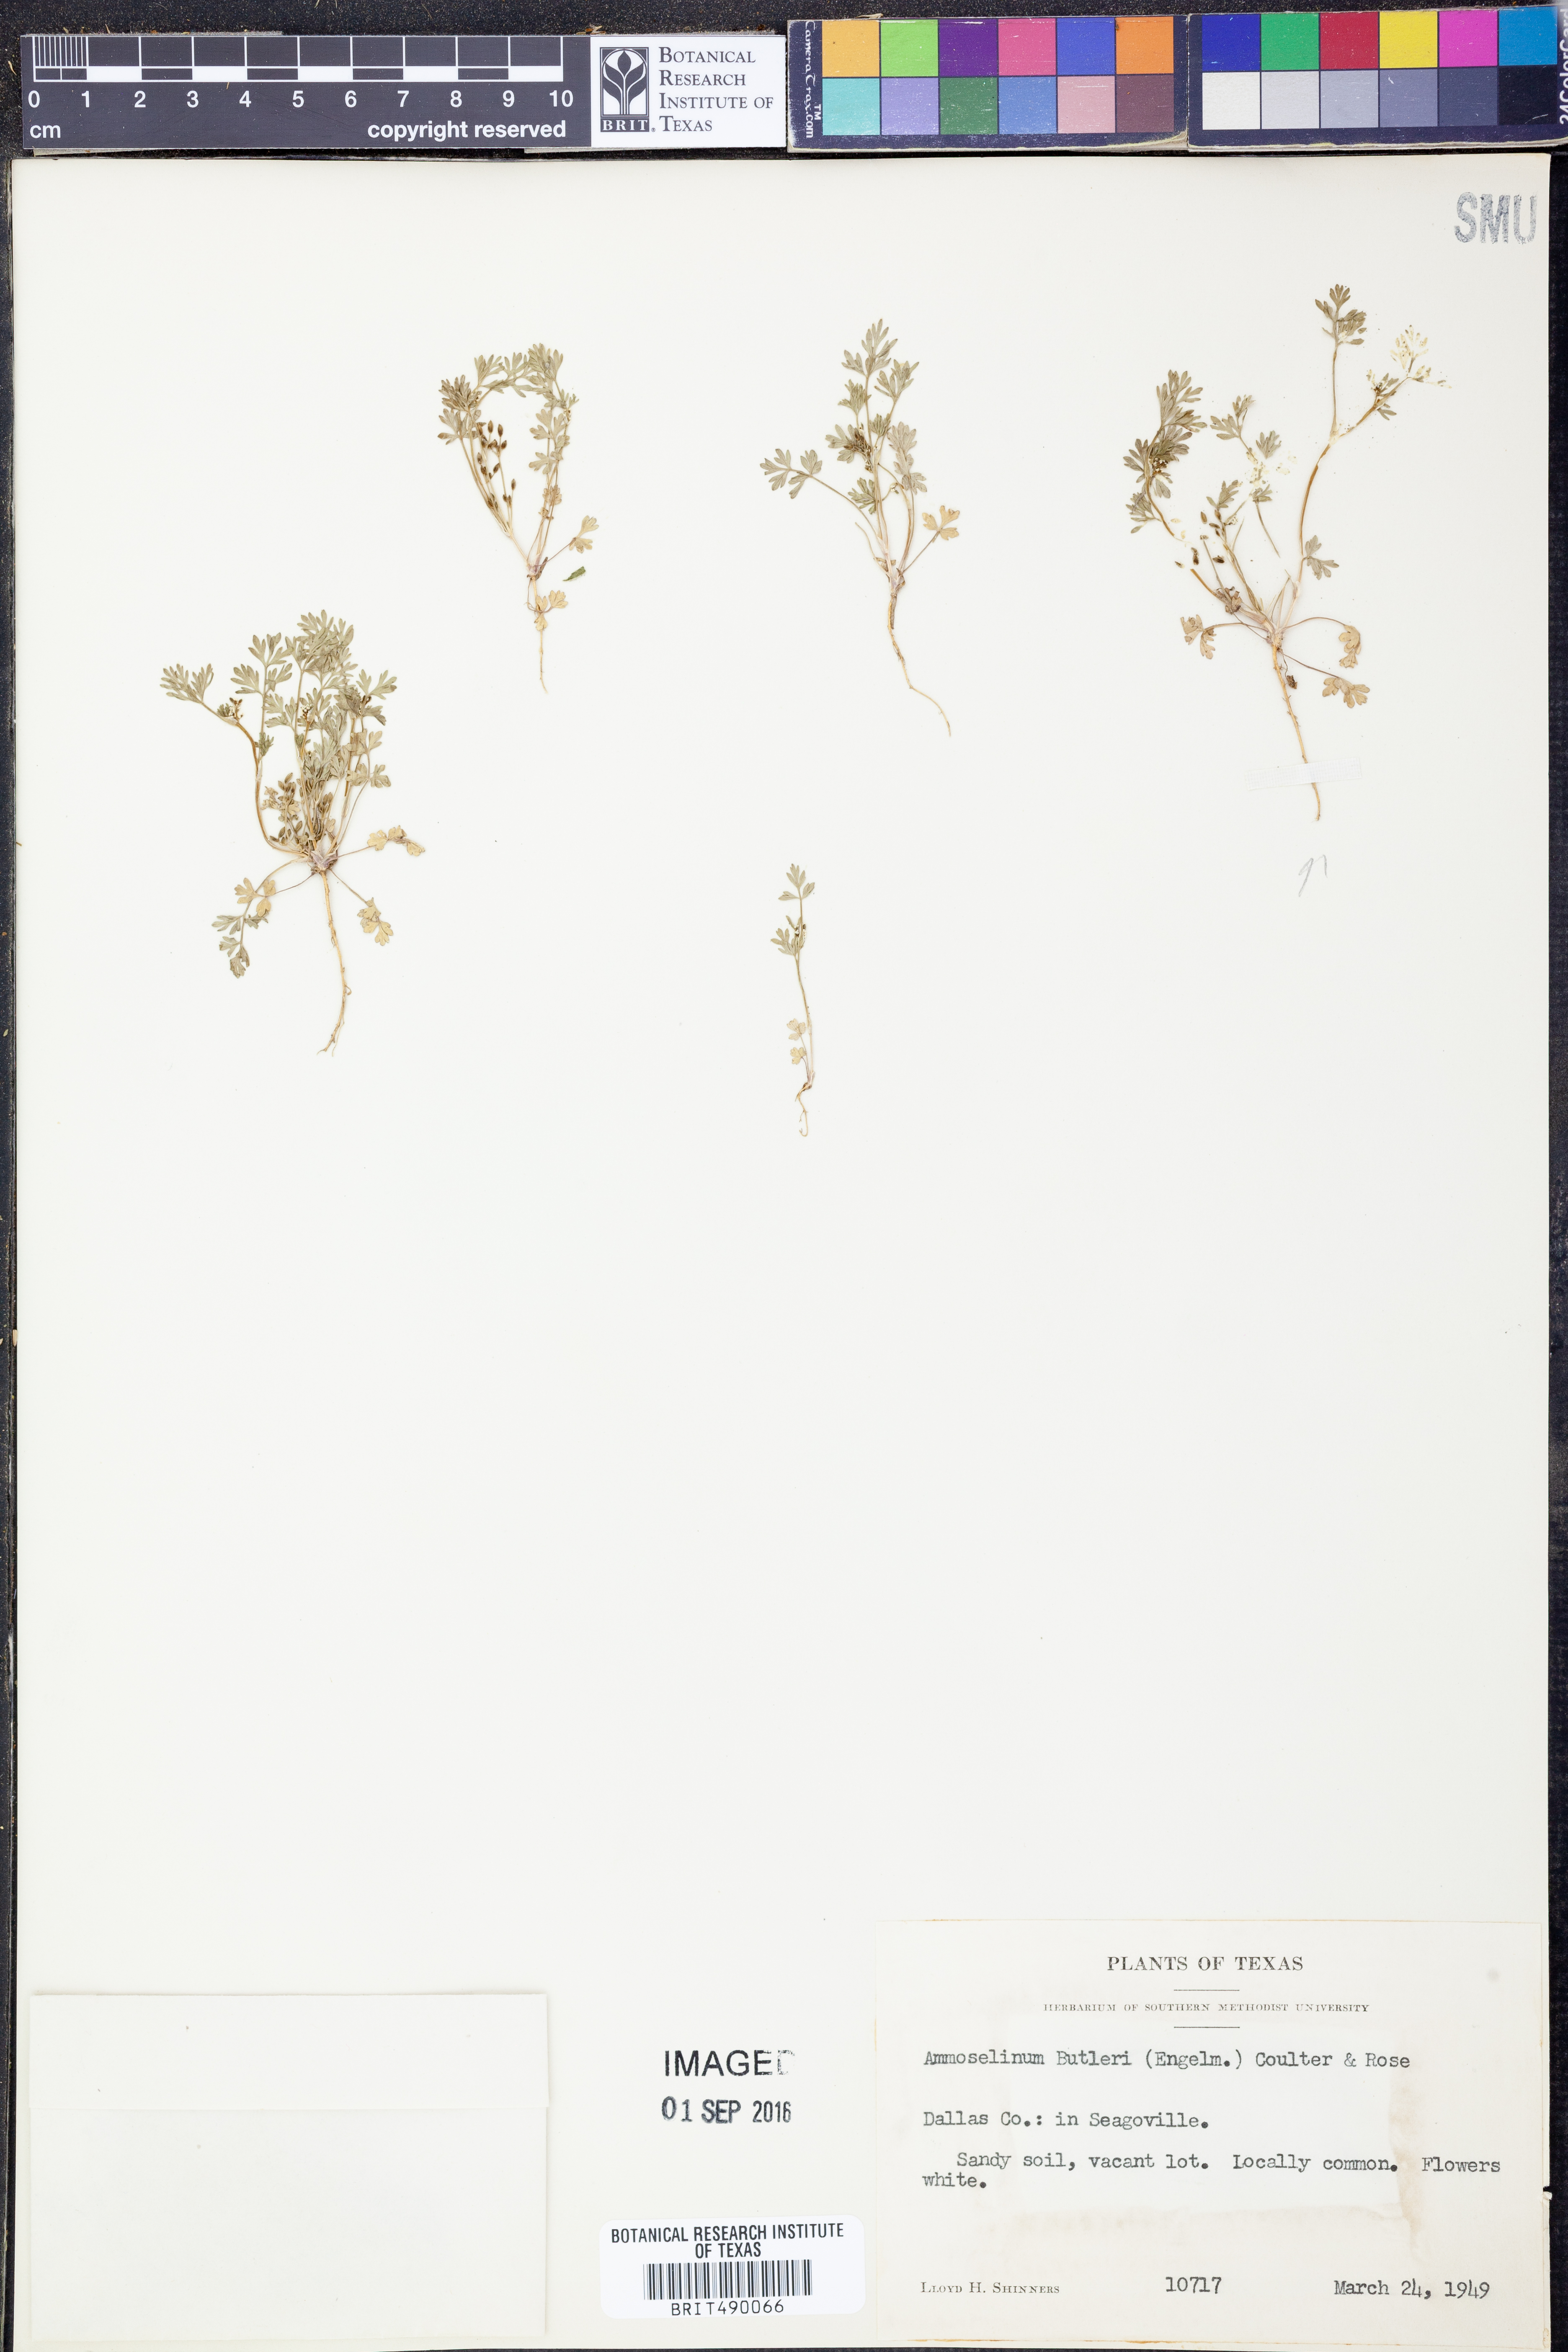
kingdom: Plantae
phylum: Tracheophyta
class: Magnoliopsida
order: Apiales
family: Apiaceae
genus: Ammoselinum
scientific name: Ammoselinum butleri
